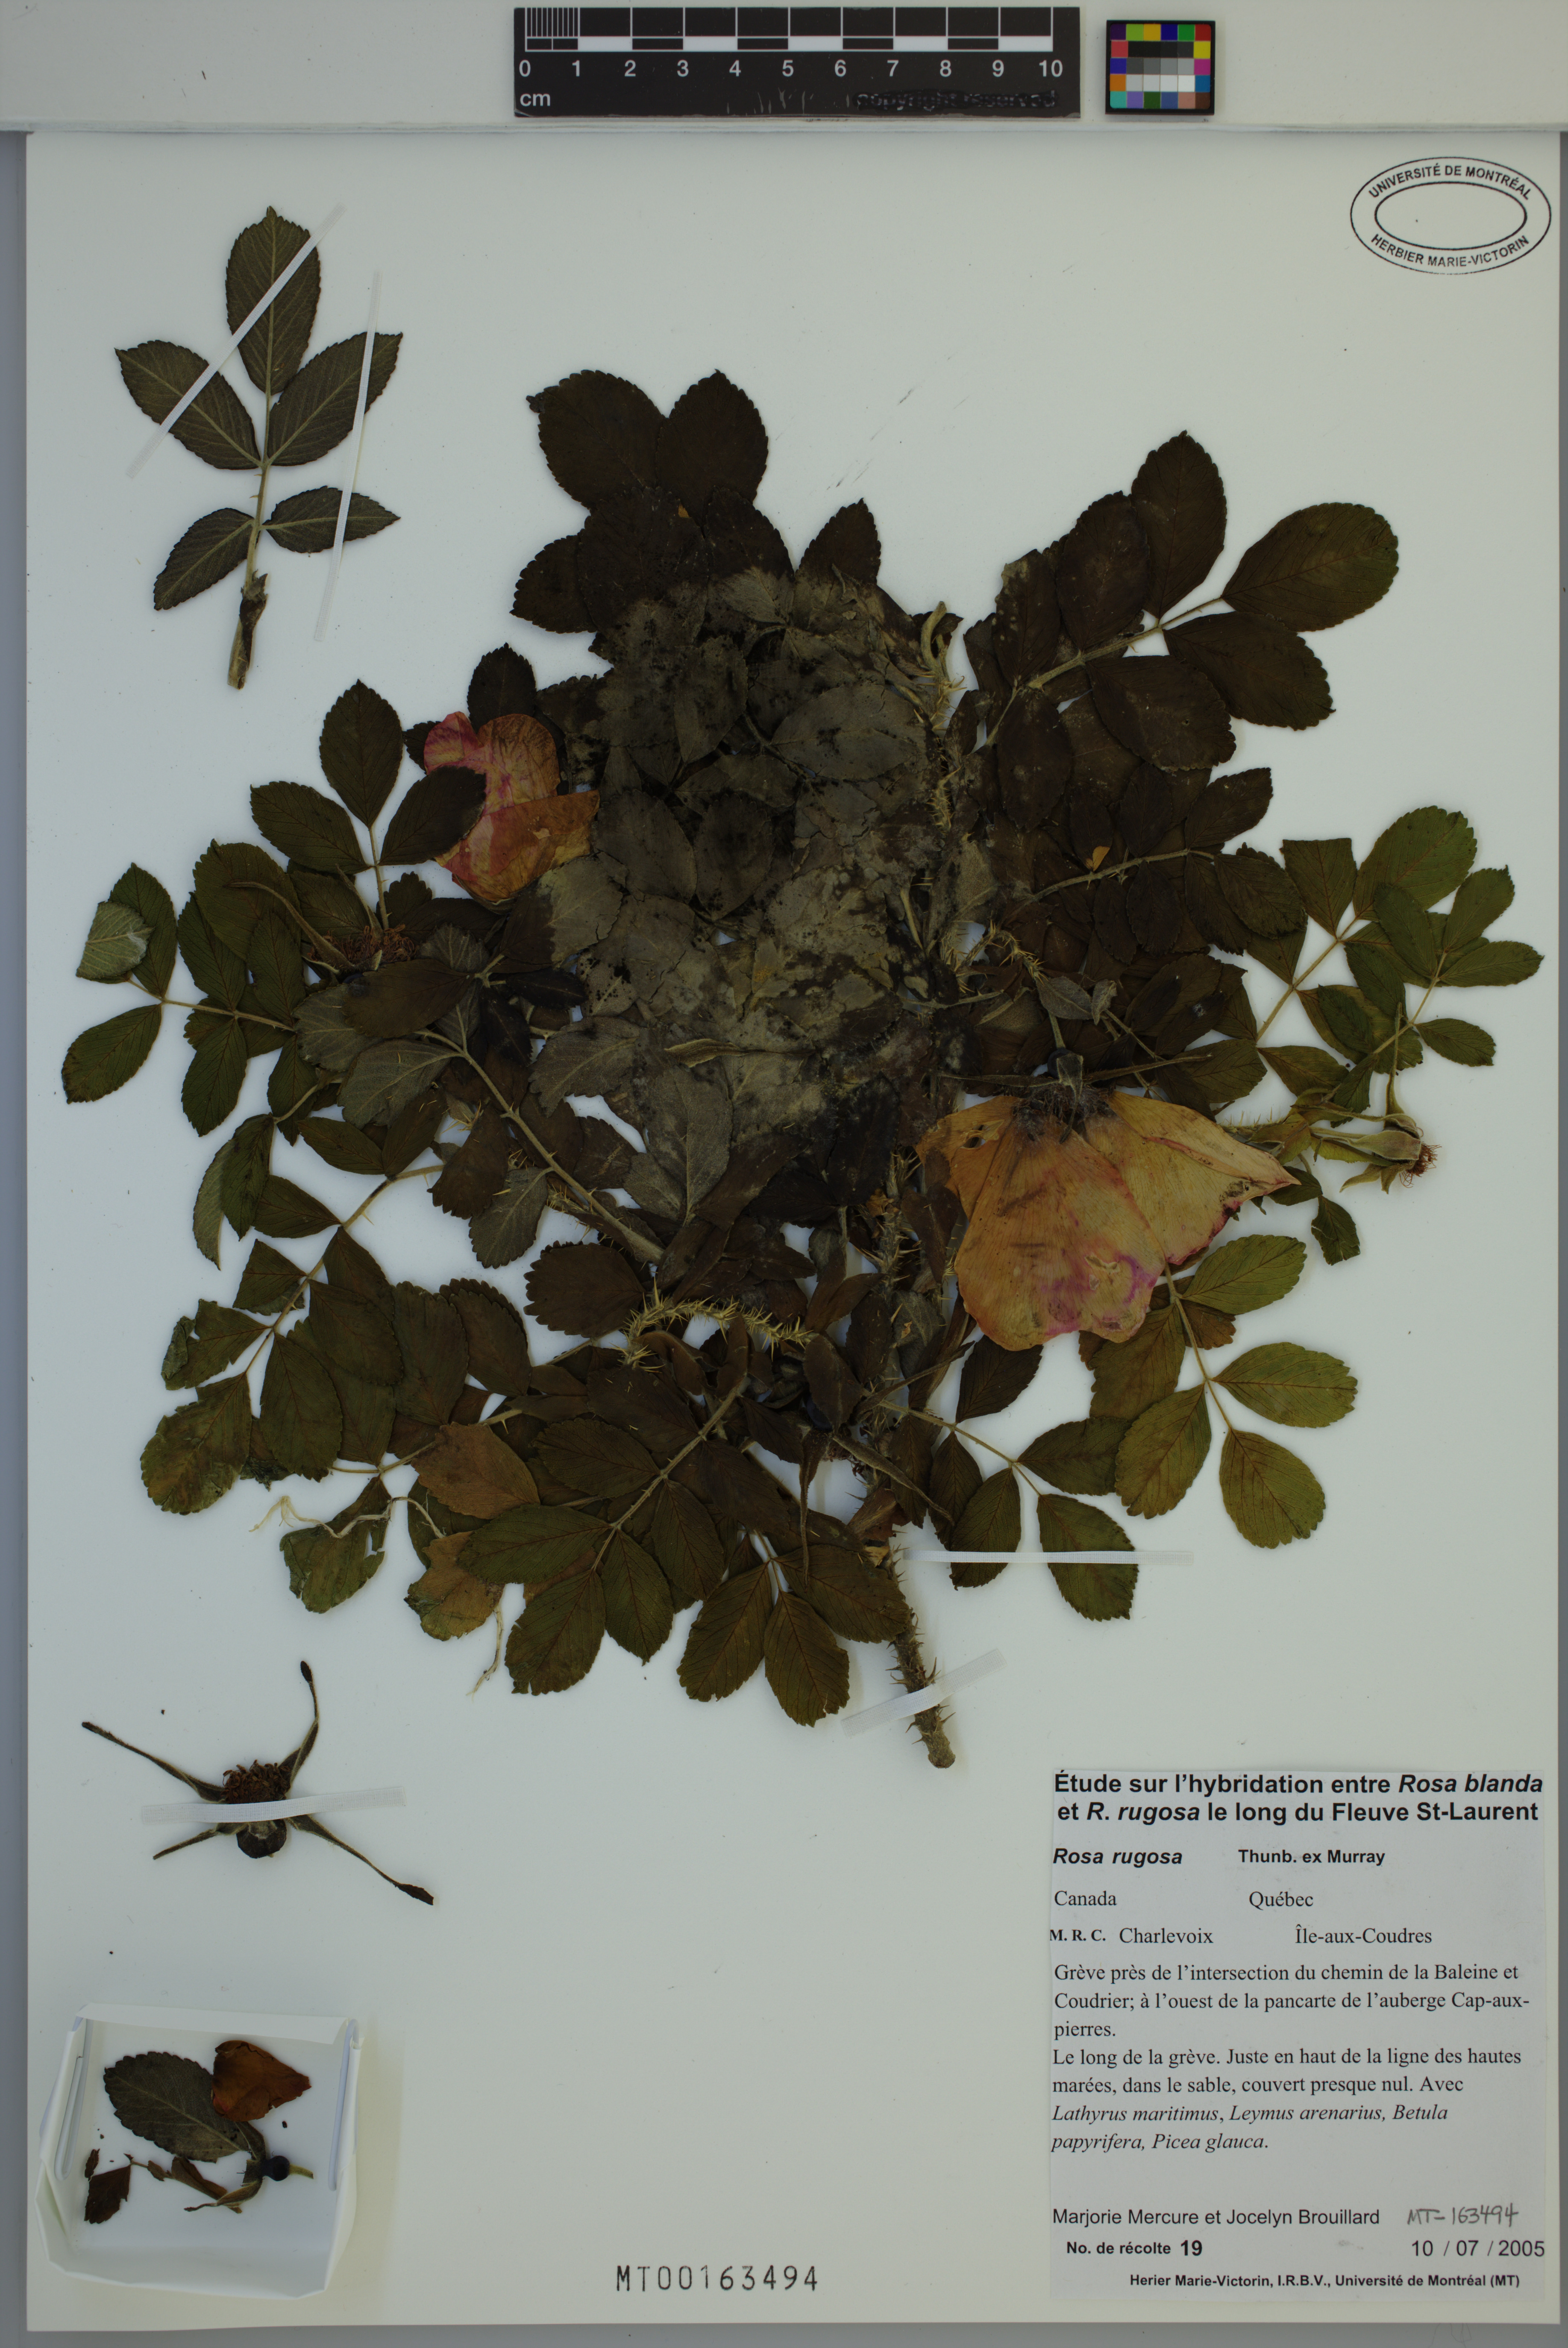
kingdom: Plantae
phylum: Tracheophyta
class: Magnoliopsida
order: Rosales
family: Rosaceae
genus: Rosa
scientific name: Rosa rugosa
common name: Japanese rose
